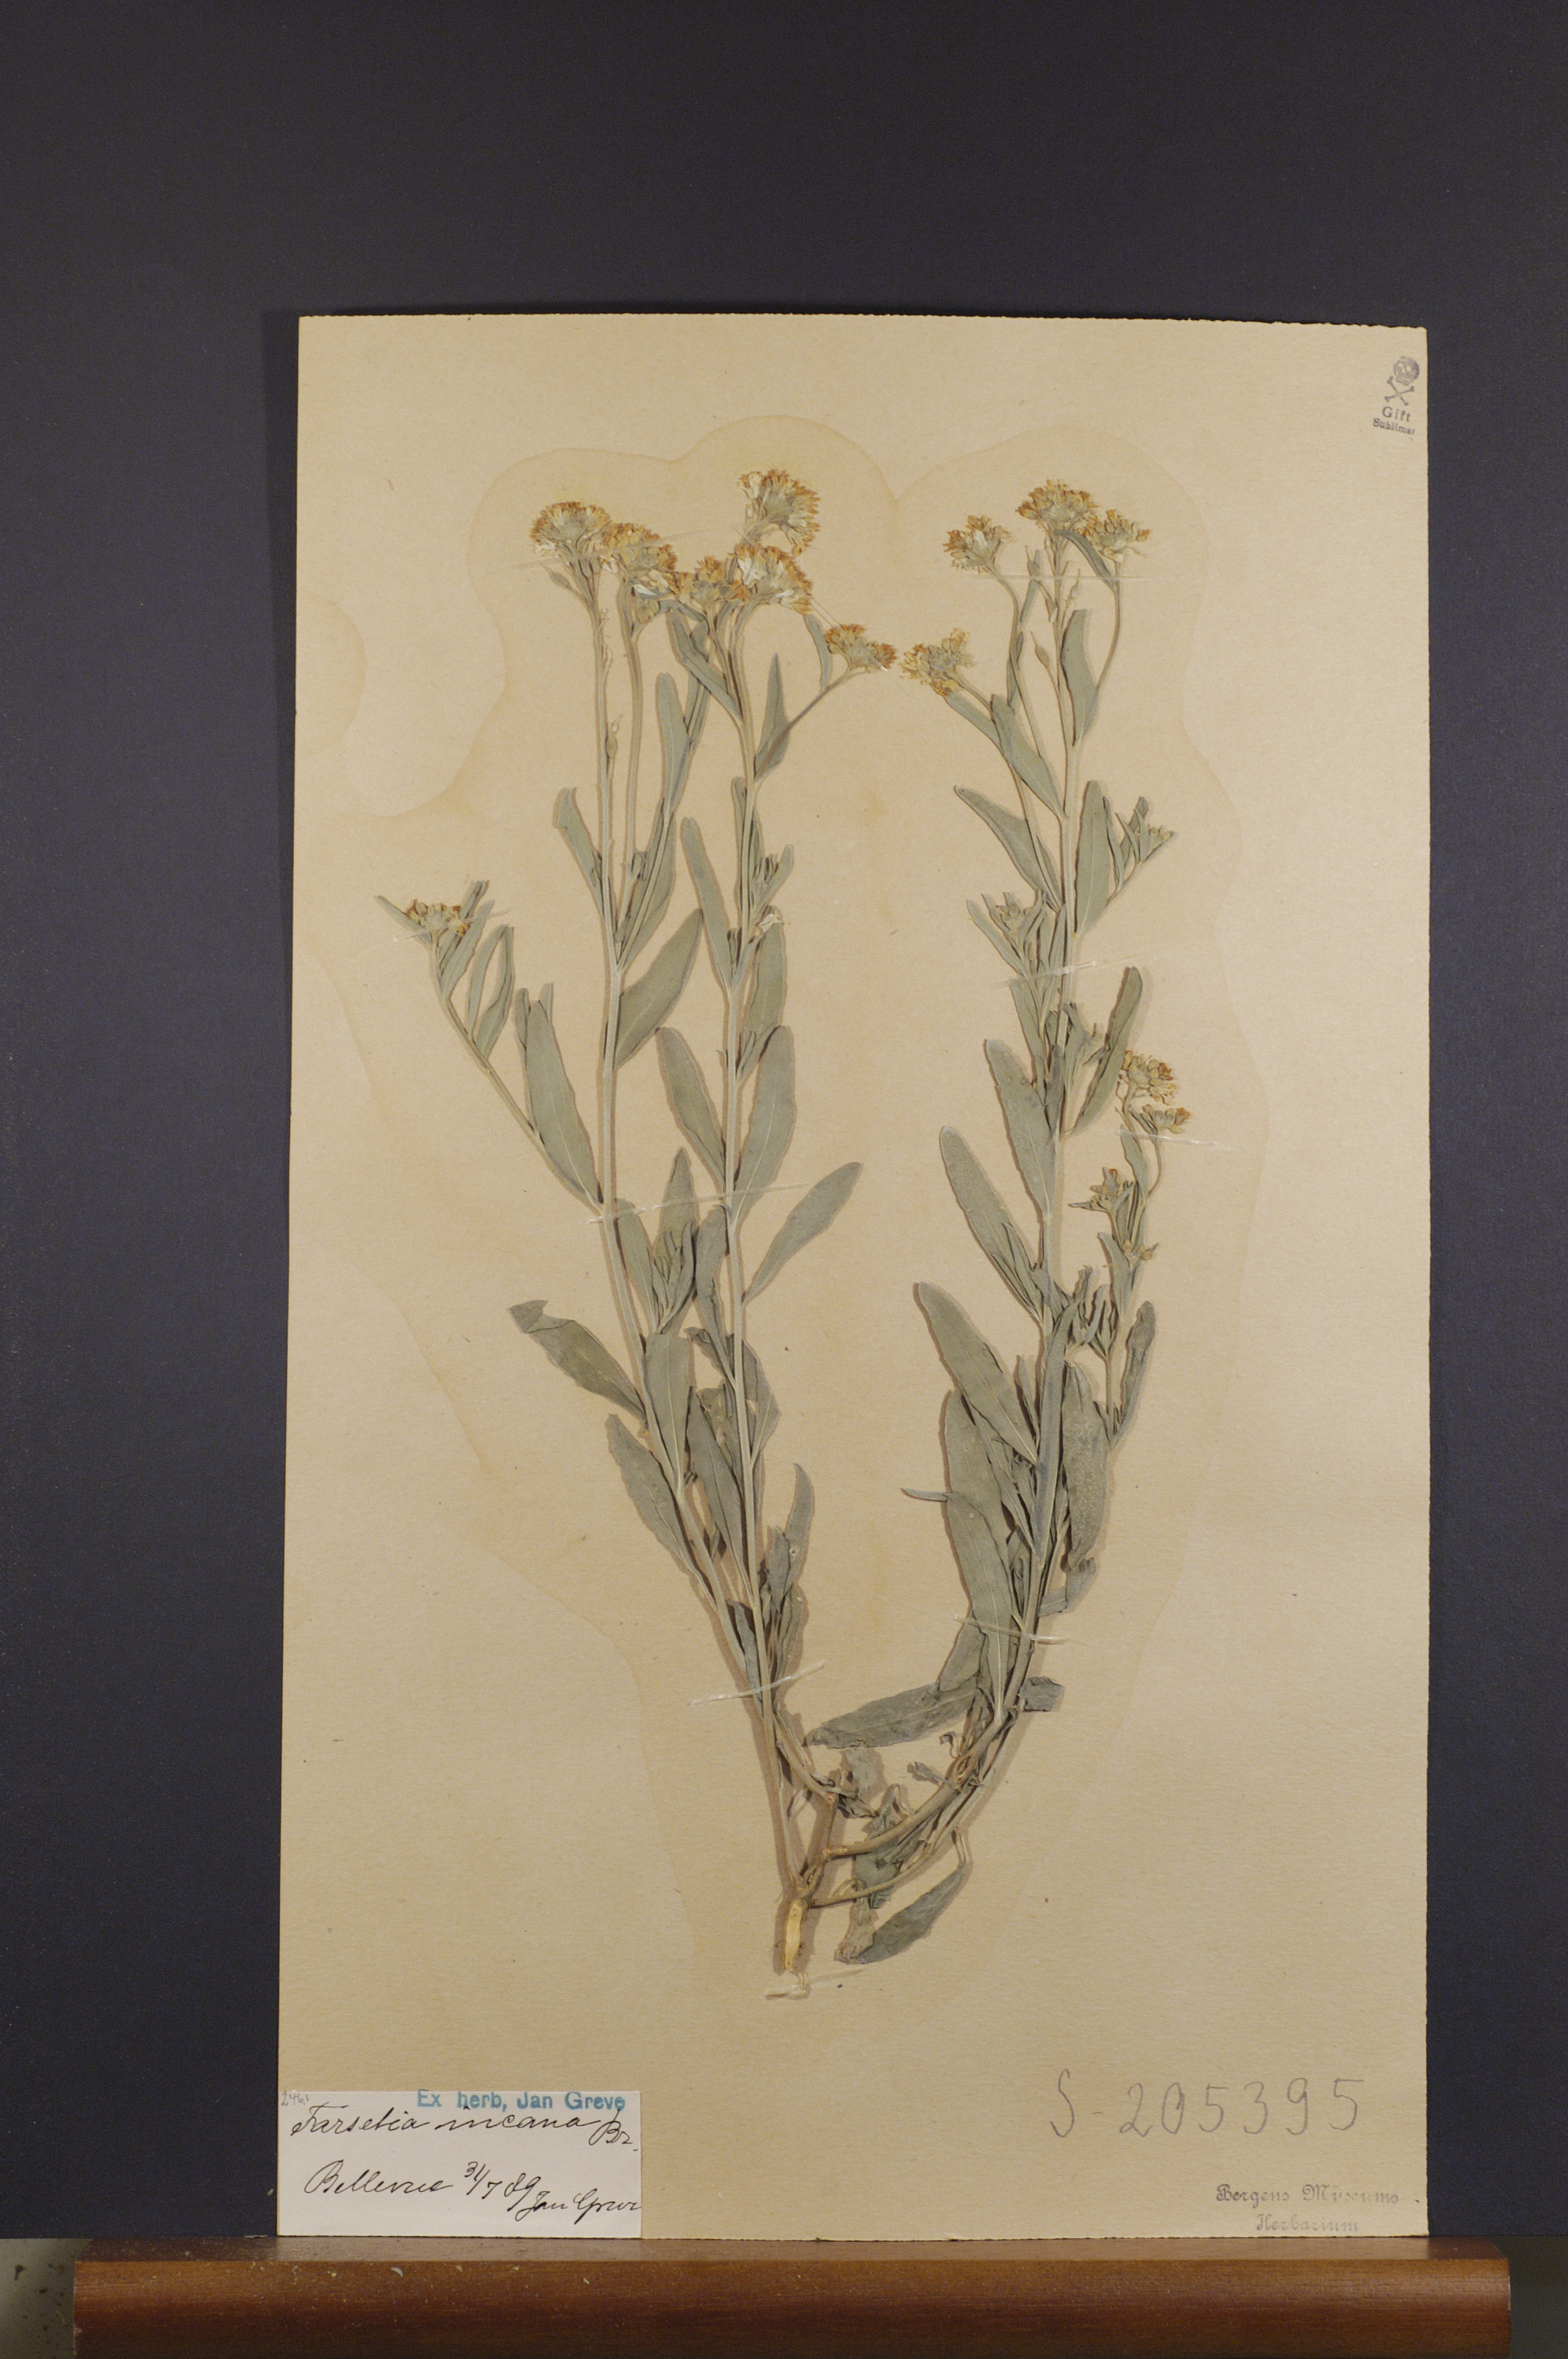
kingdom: Plantae
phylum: Tracheophyta
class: Magnoliopsida
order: Brassicales
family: Brassicaceae
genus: Berteroa
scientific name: Berteroa incana
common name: Hoary alison
